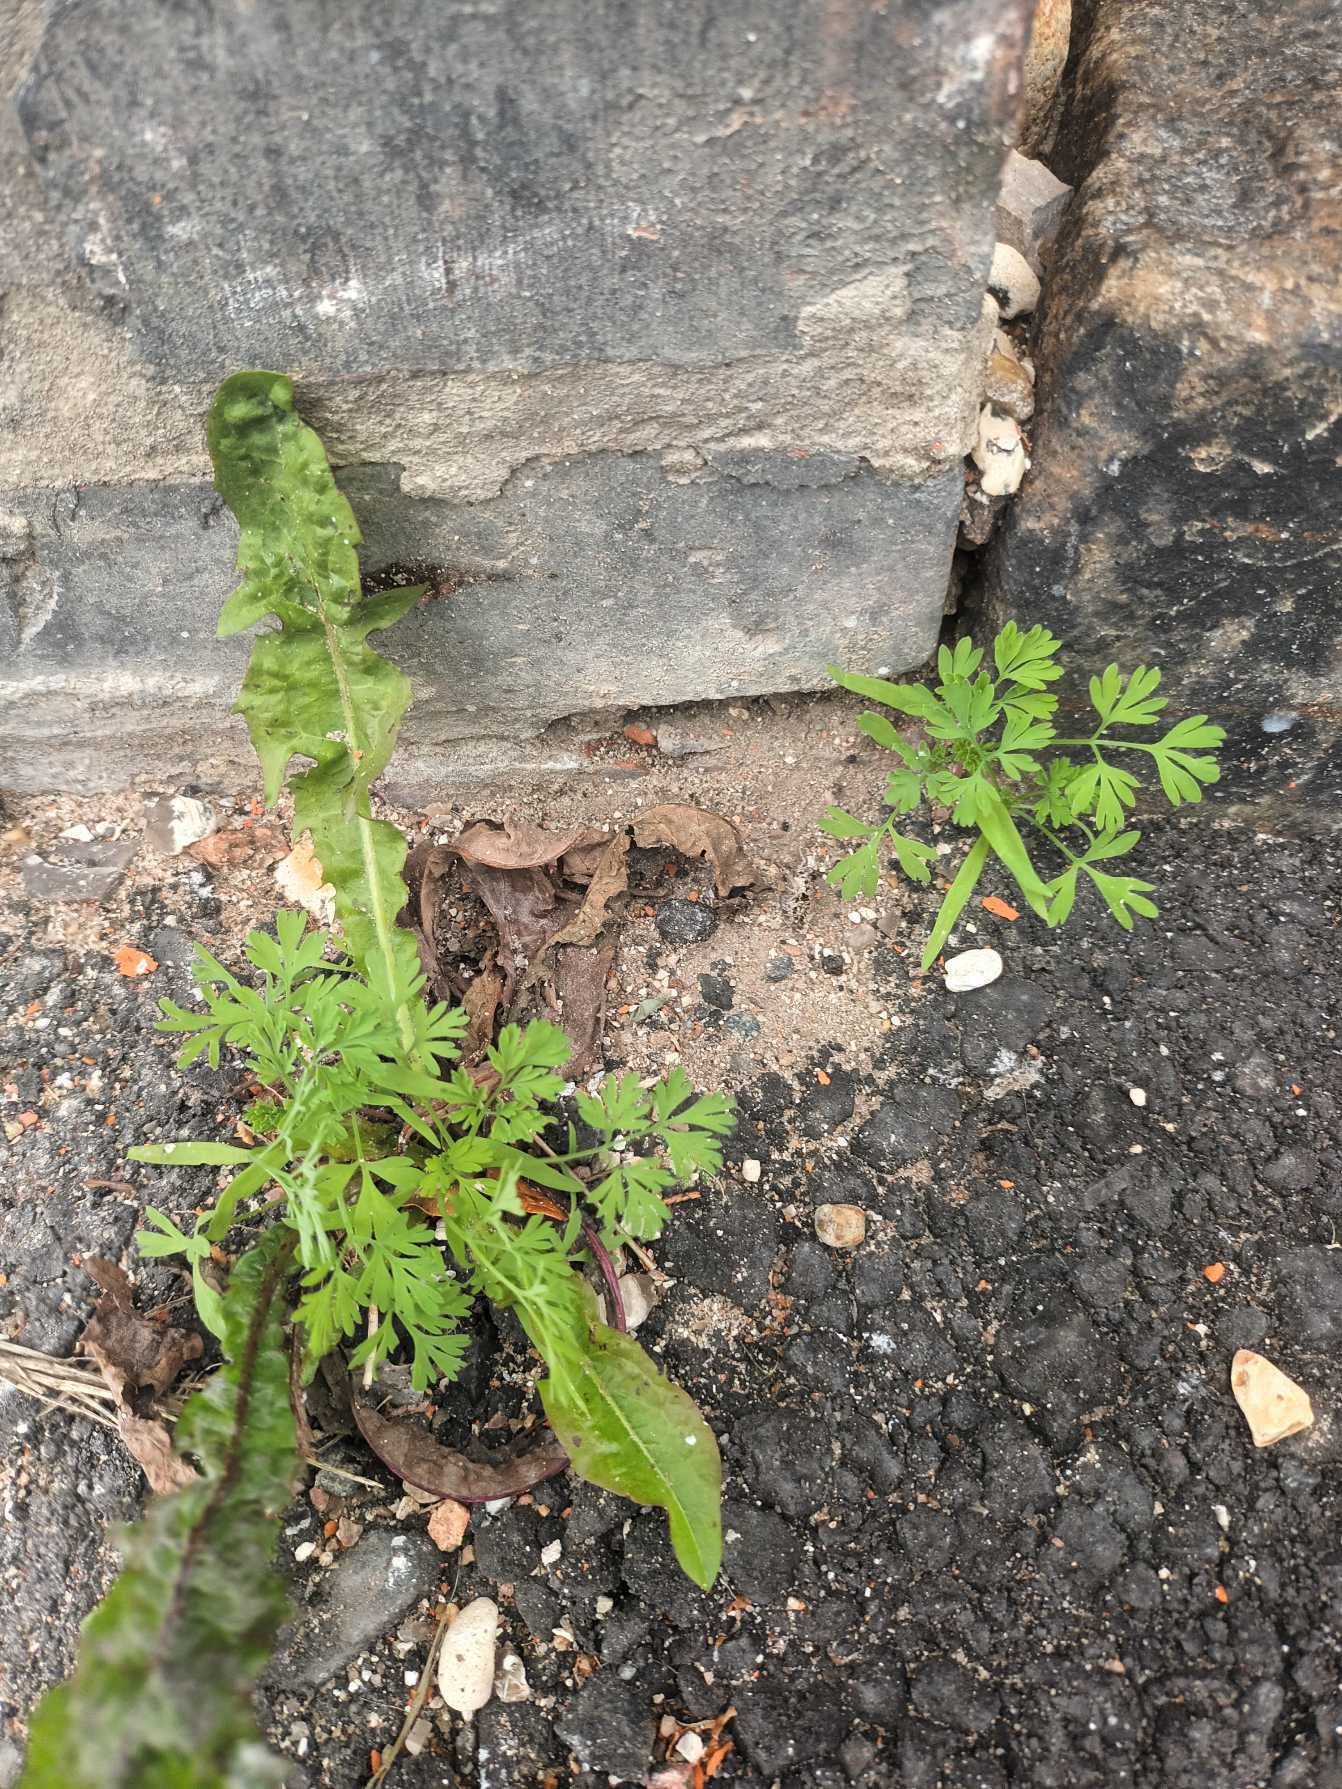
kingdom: Plantae
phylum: Tracheophyta
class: Magnoliopsida
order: Ranunculales
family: Papaveraceae
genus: Fumaria
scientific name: Fumaria officinalis
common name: Læge-jordrøg
